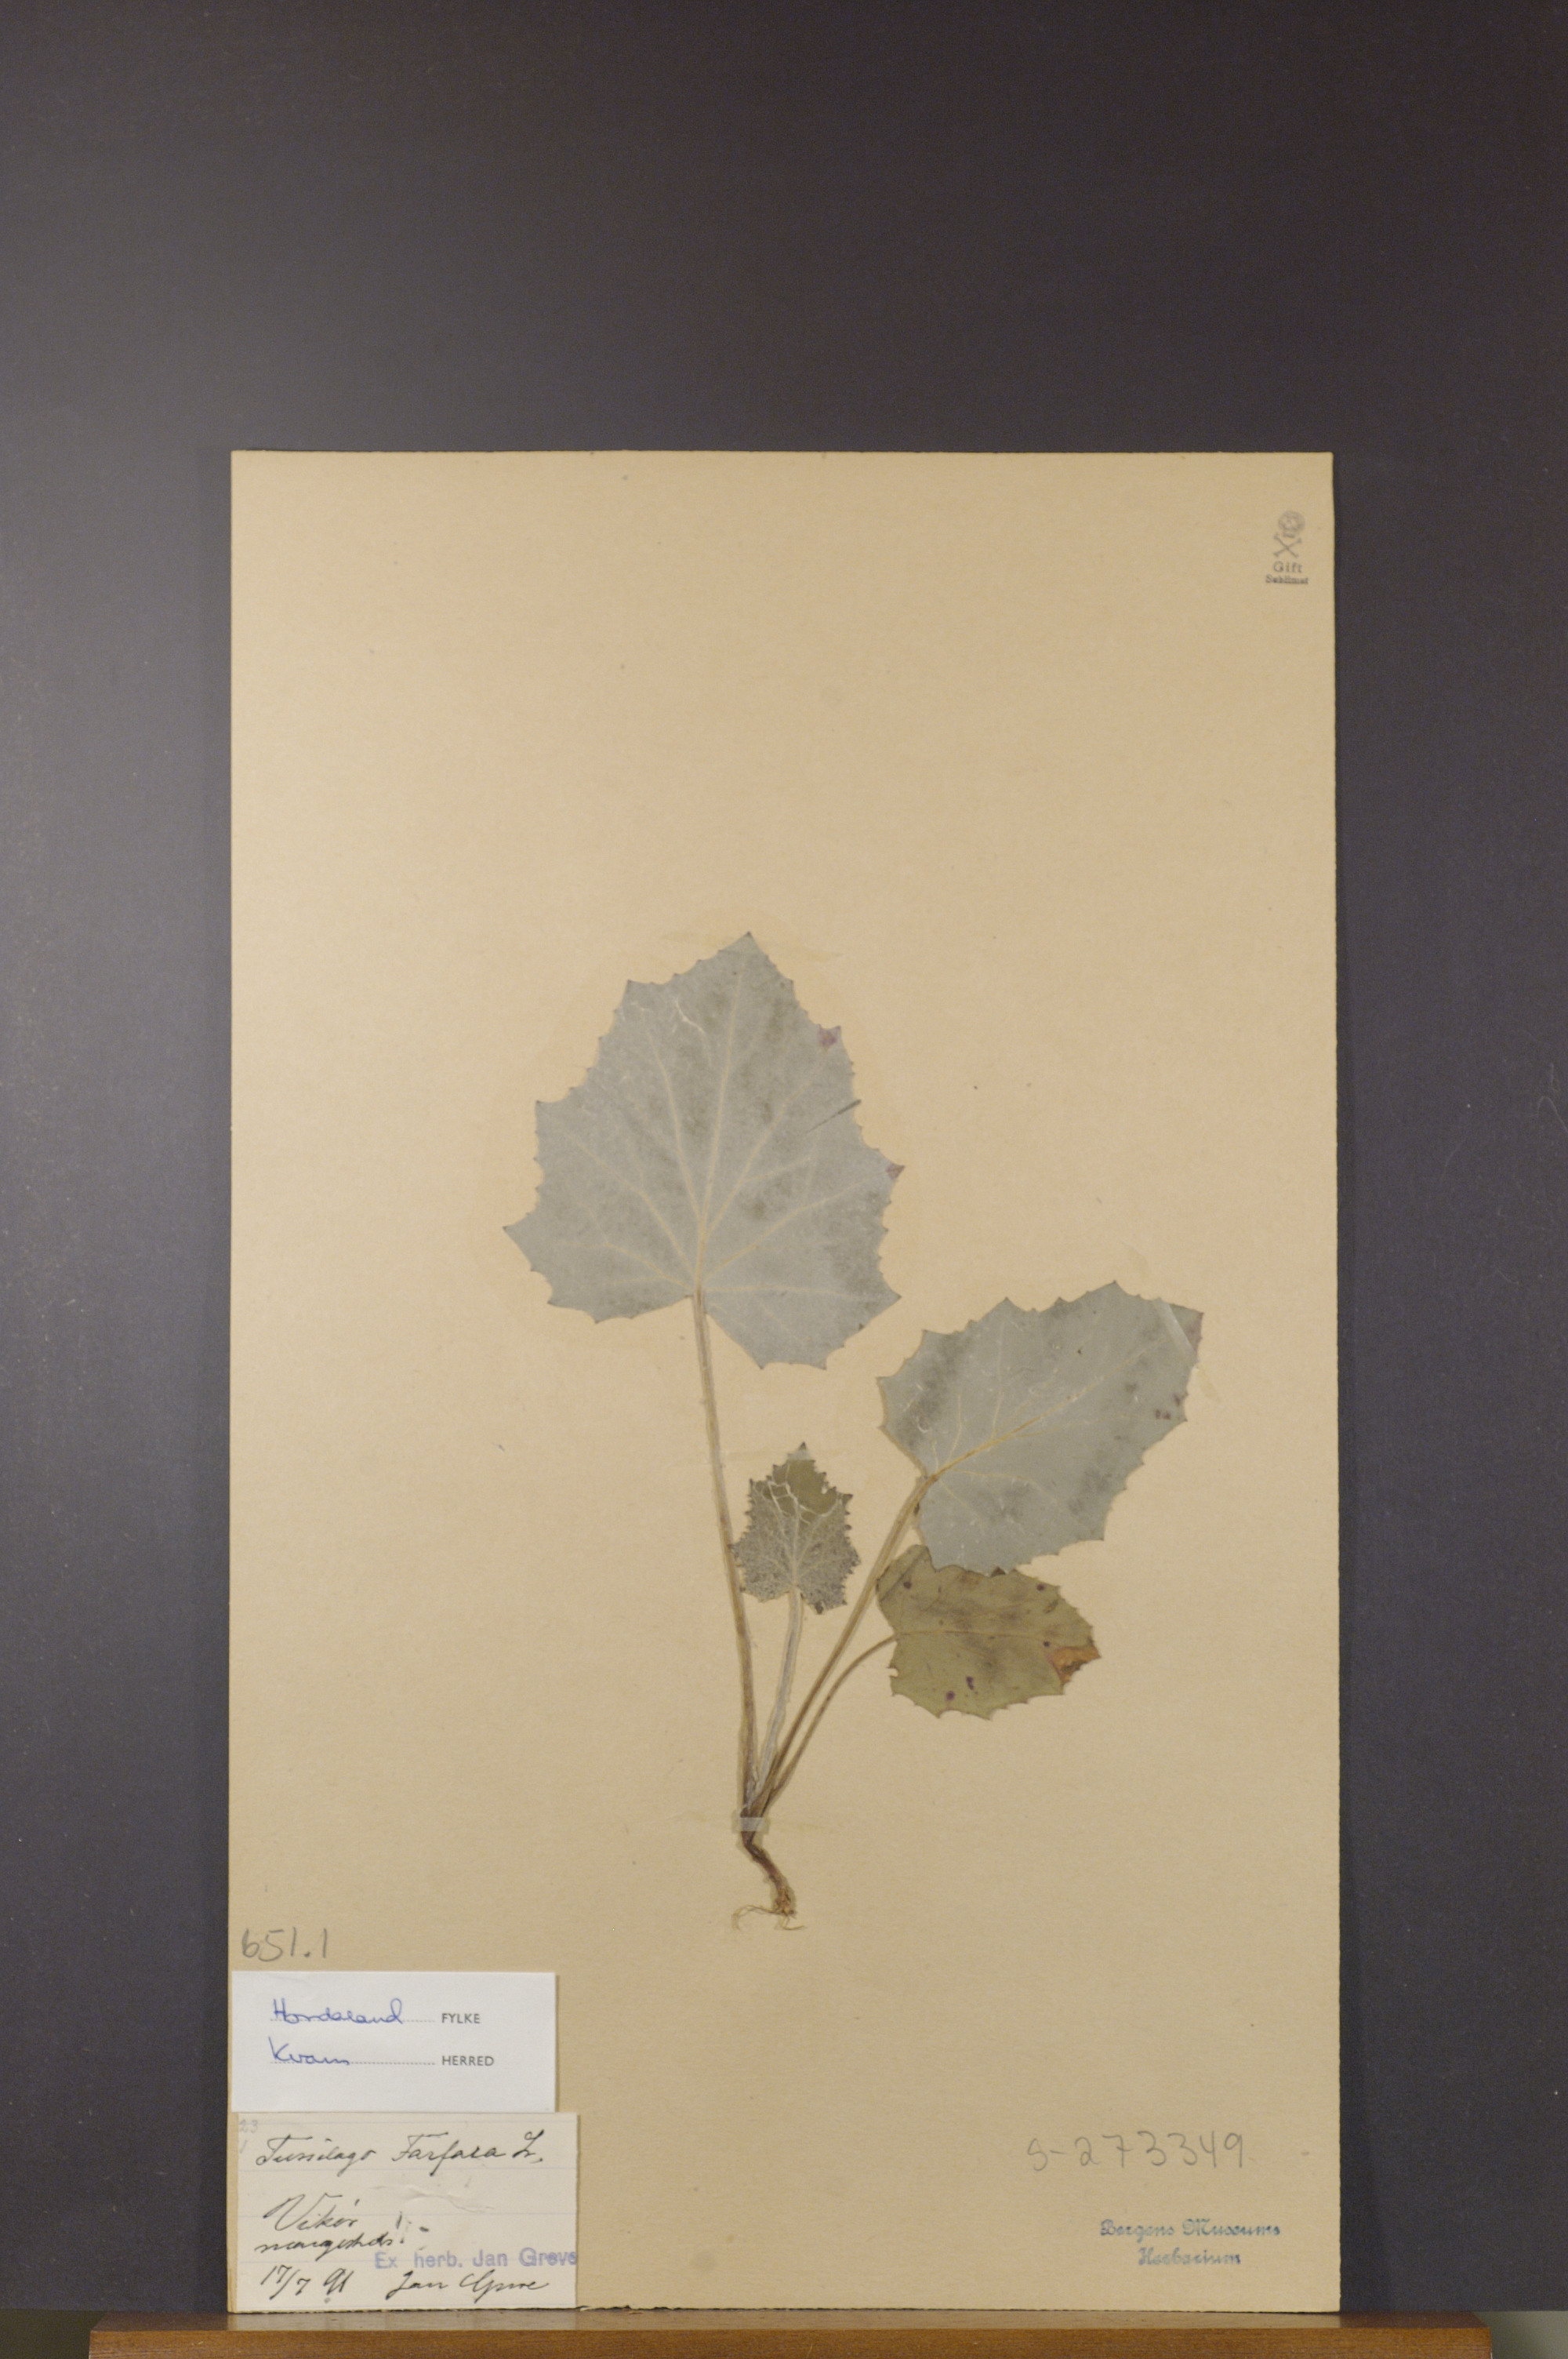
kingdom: Plantae
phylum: Tracheophyta
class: Magnoliopsida
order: Asterales
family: Asteraceae
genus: Tussilago
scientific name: Tussilago farfara
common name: Coltsfoot
